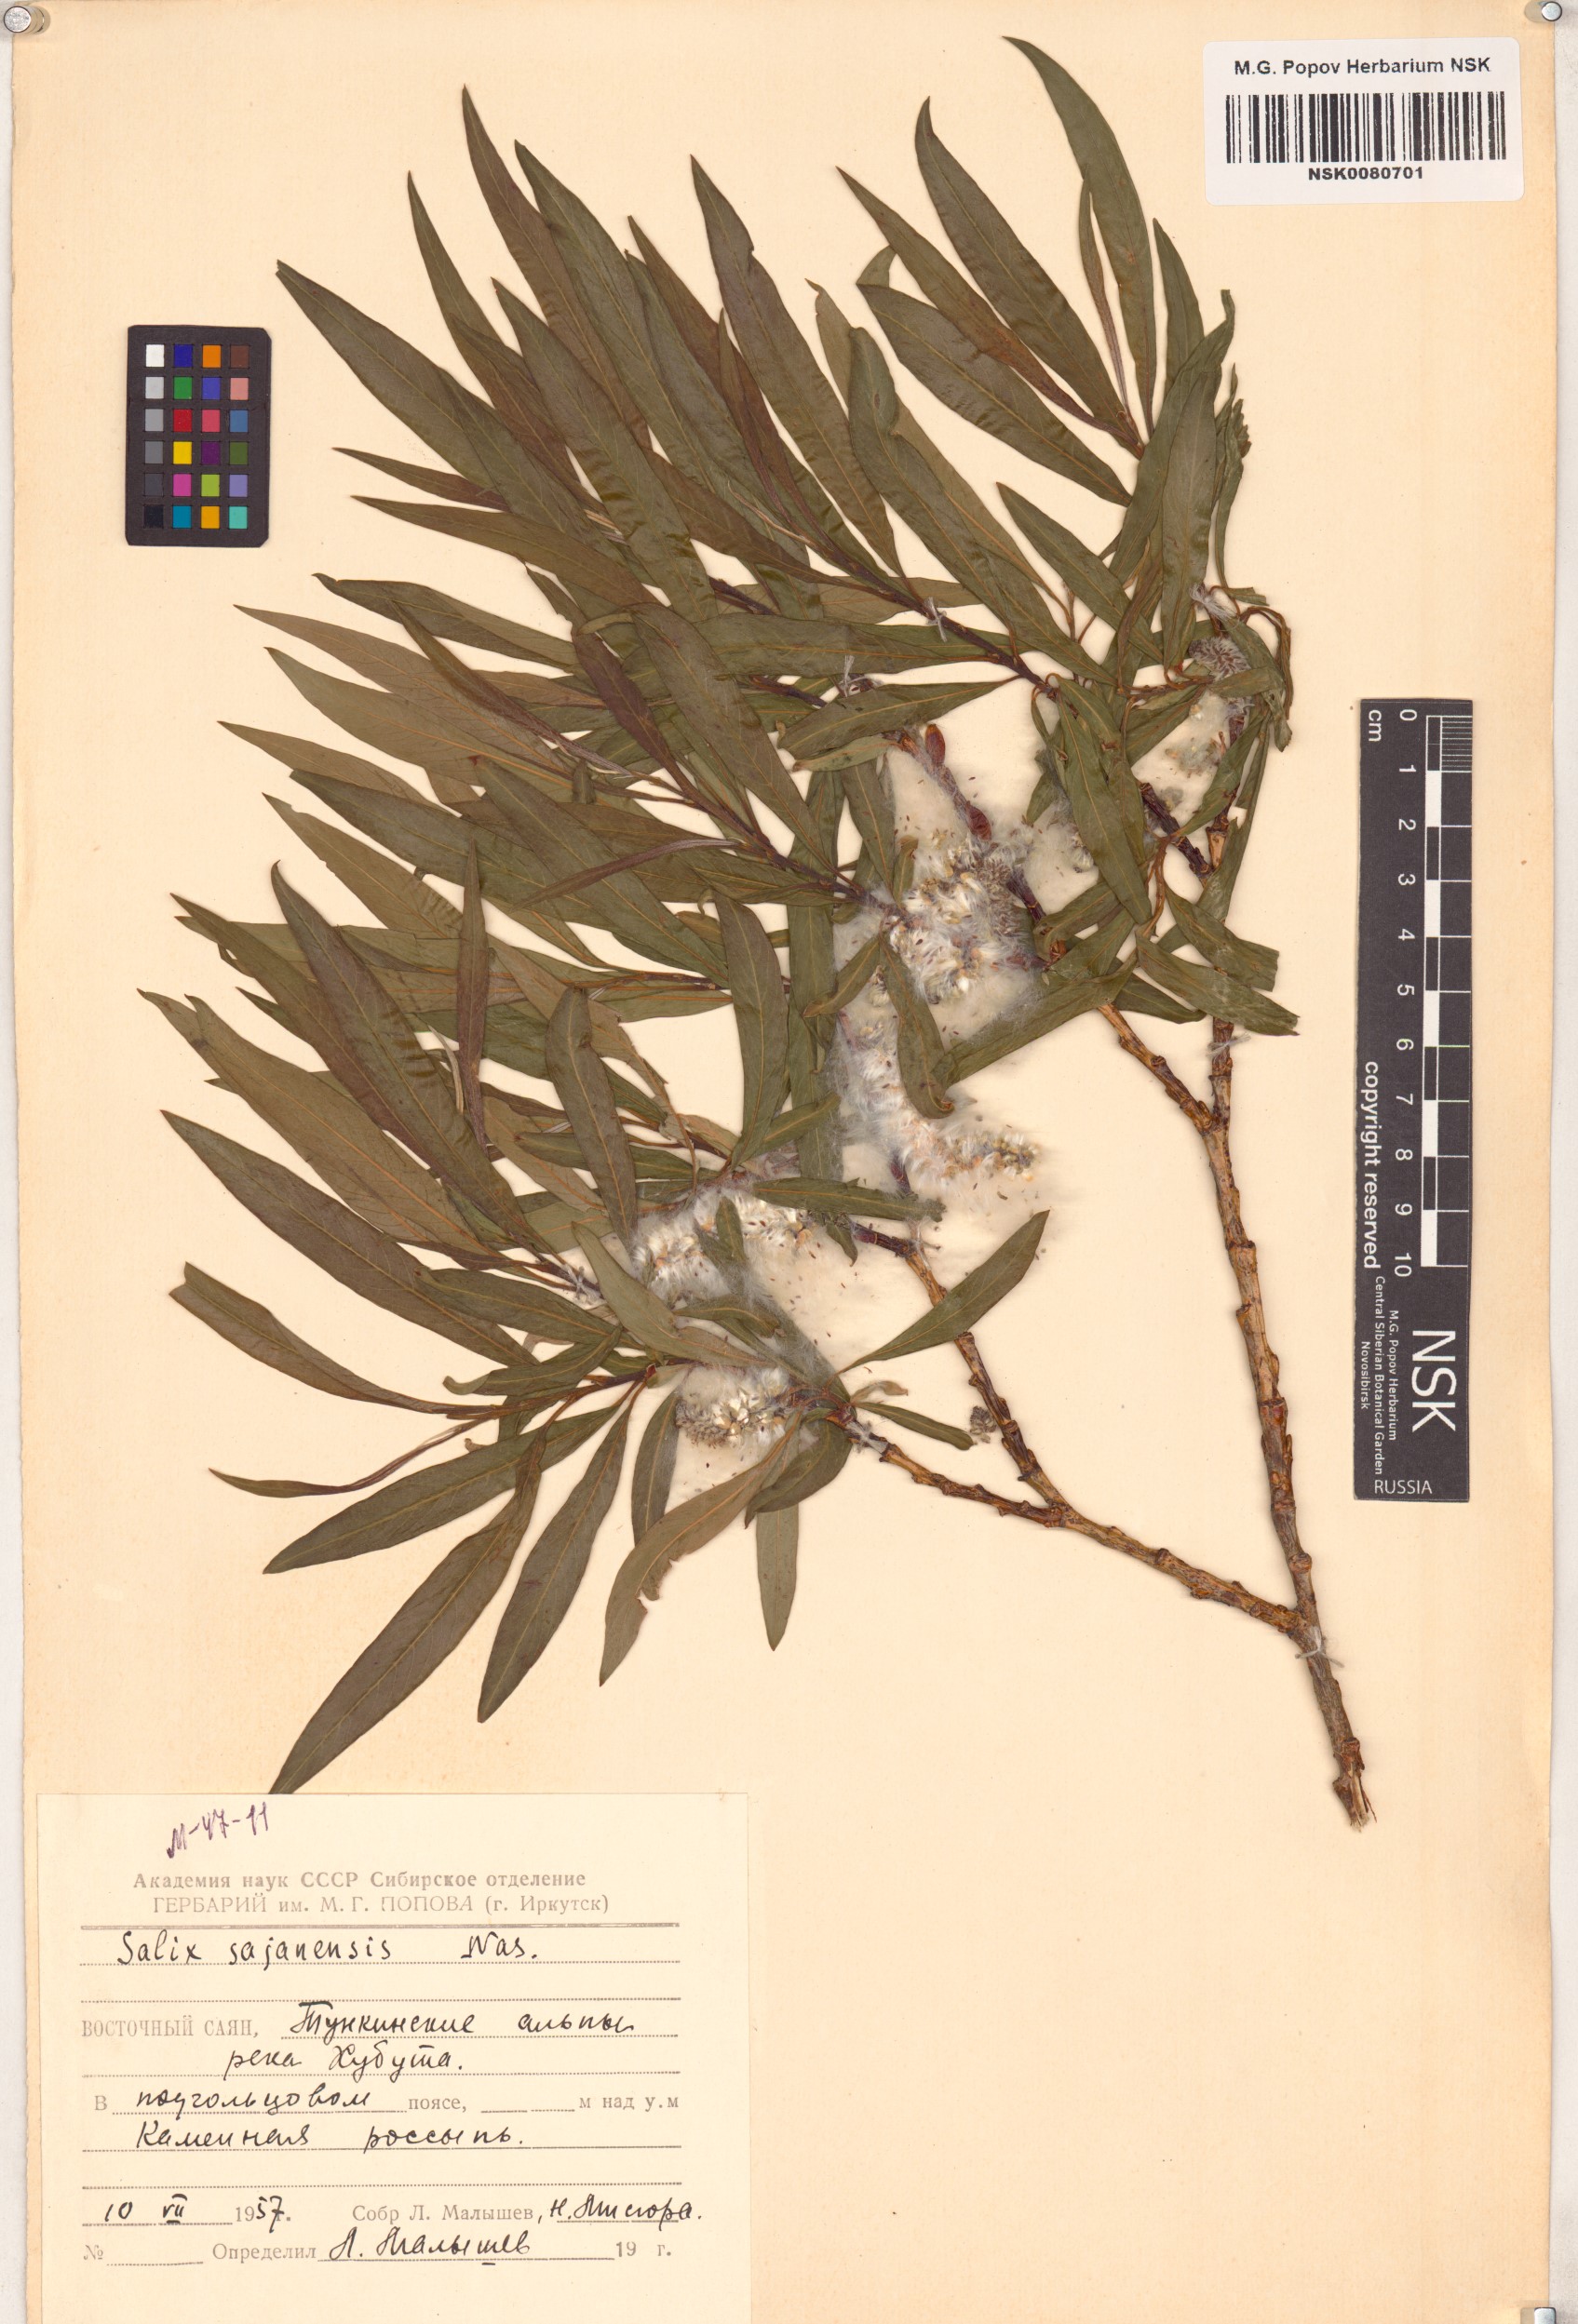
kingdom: Plantae
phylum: Tracheophyta
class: Magnoliopsida
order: Malpighiales
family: Salicaceae
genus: Salix
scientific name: Salix sajanensis
